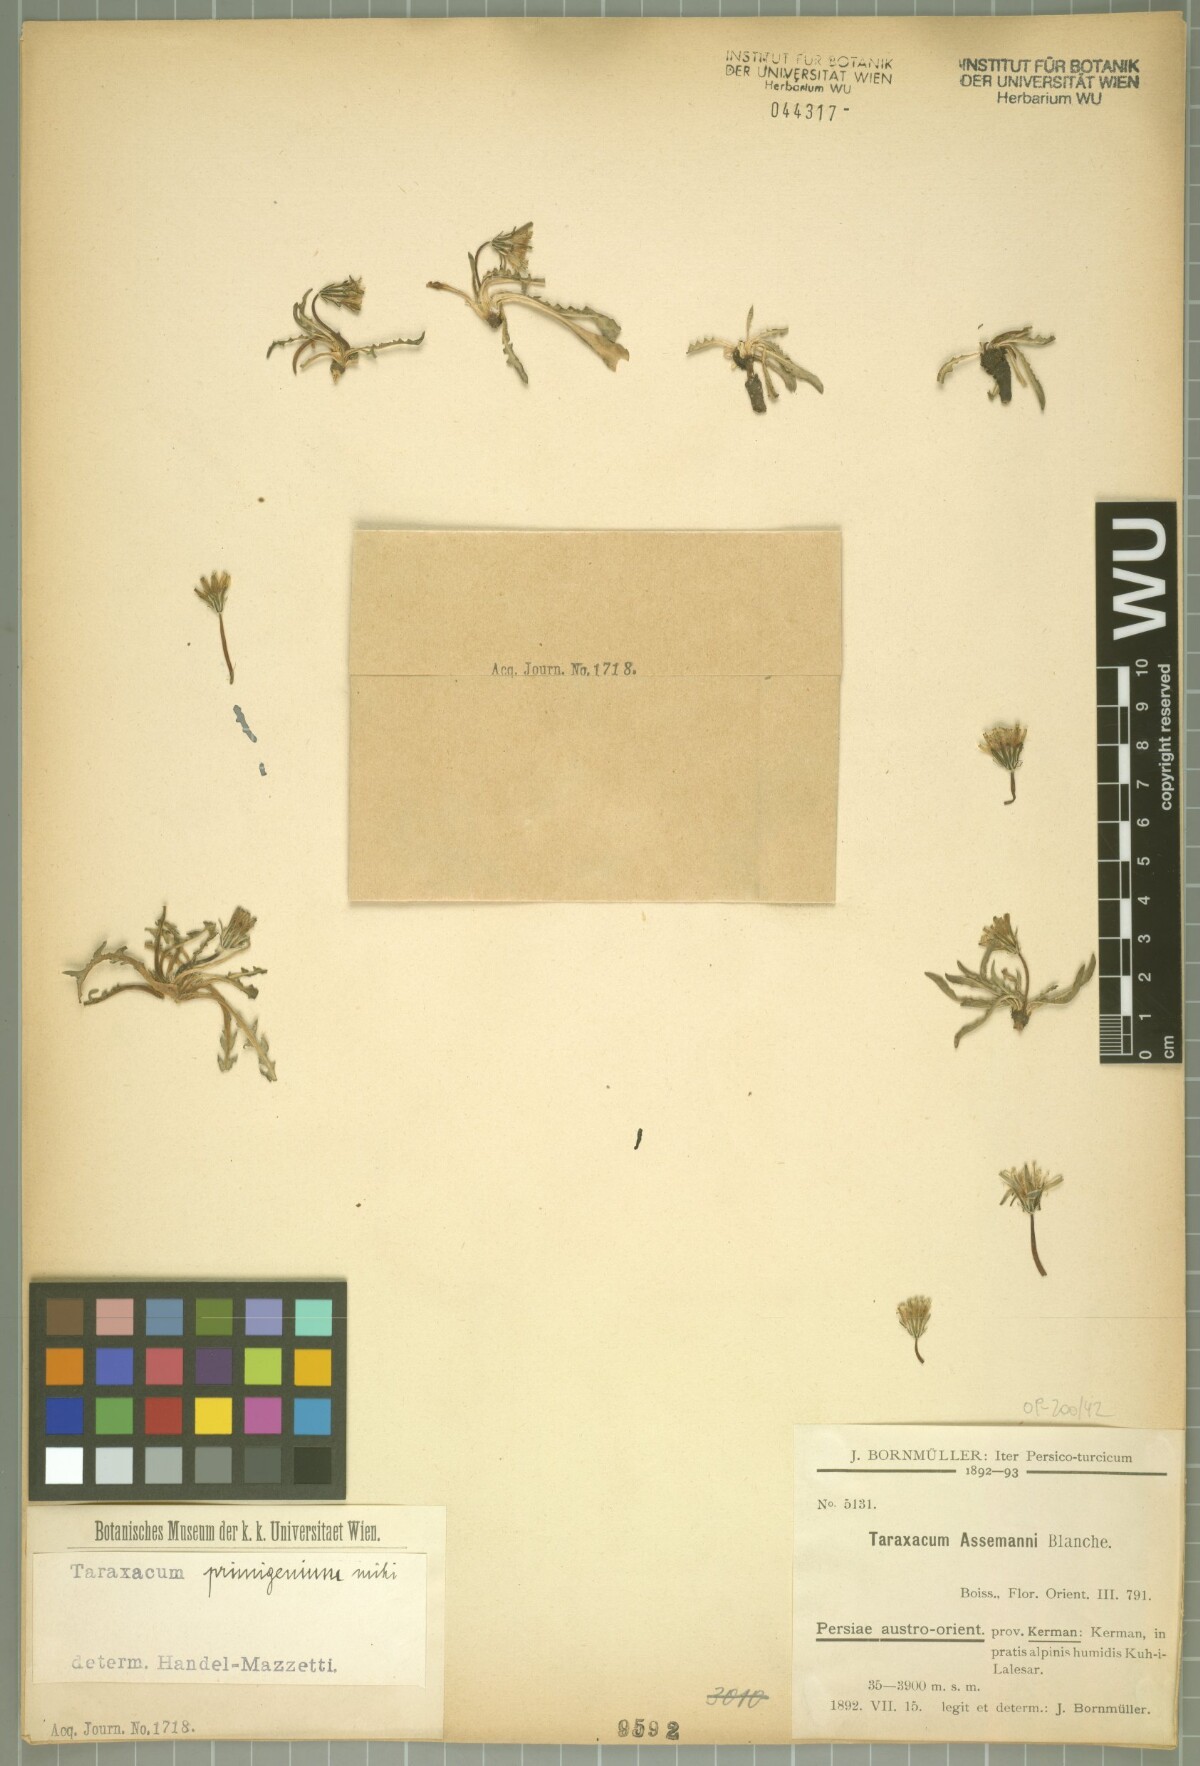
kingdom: Plantae
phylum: Tracheophyta
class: Magnoliopsida
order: Asterales
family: Asteraceae
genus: Taraxacum
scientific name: Taraxacum assemanii
